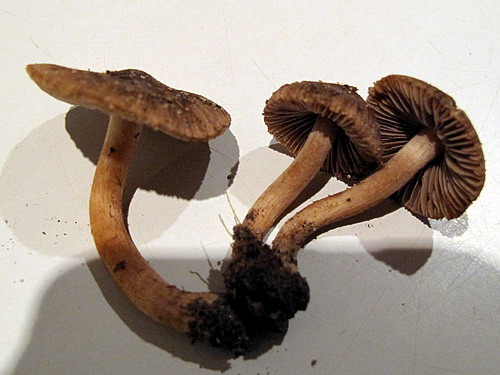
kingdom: Fungi
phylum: Basidiomycota
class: Agaricomycetes
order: Agaricales
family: Inocybaceae
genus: Inocybe
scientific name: Inocybe glabrodisca
